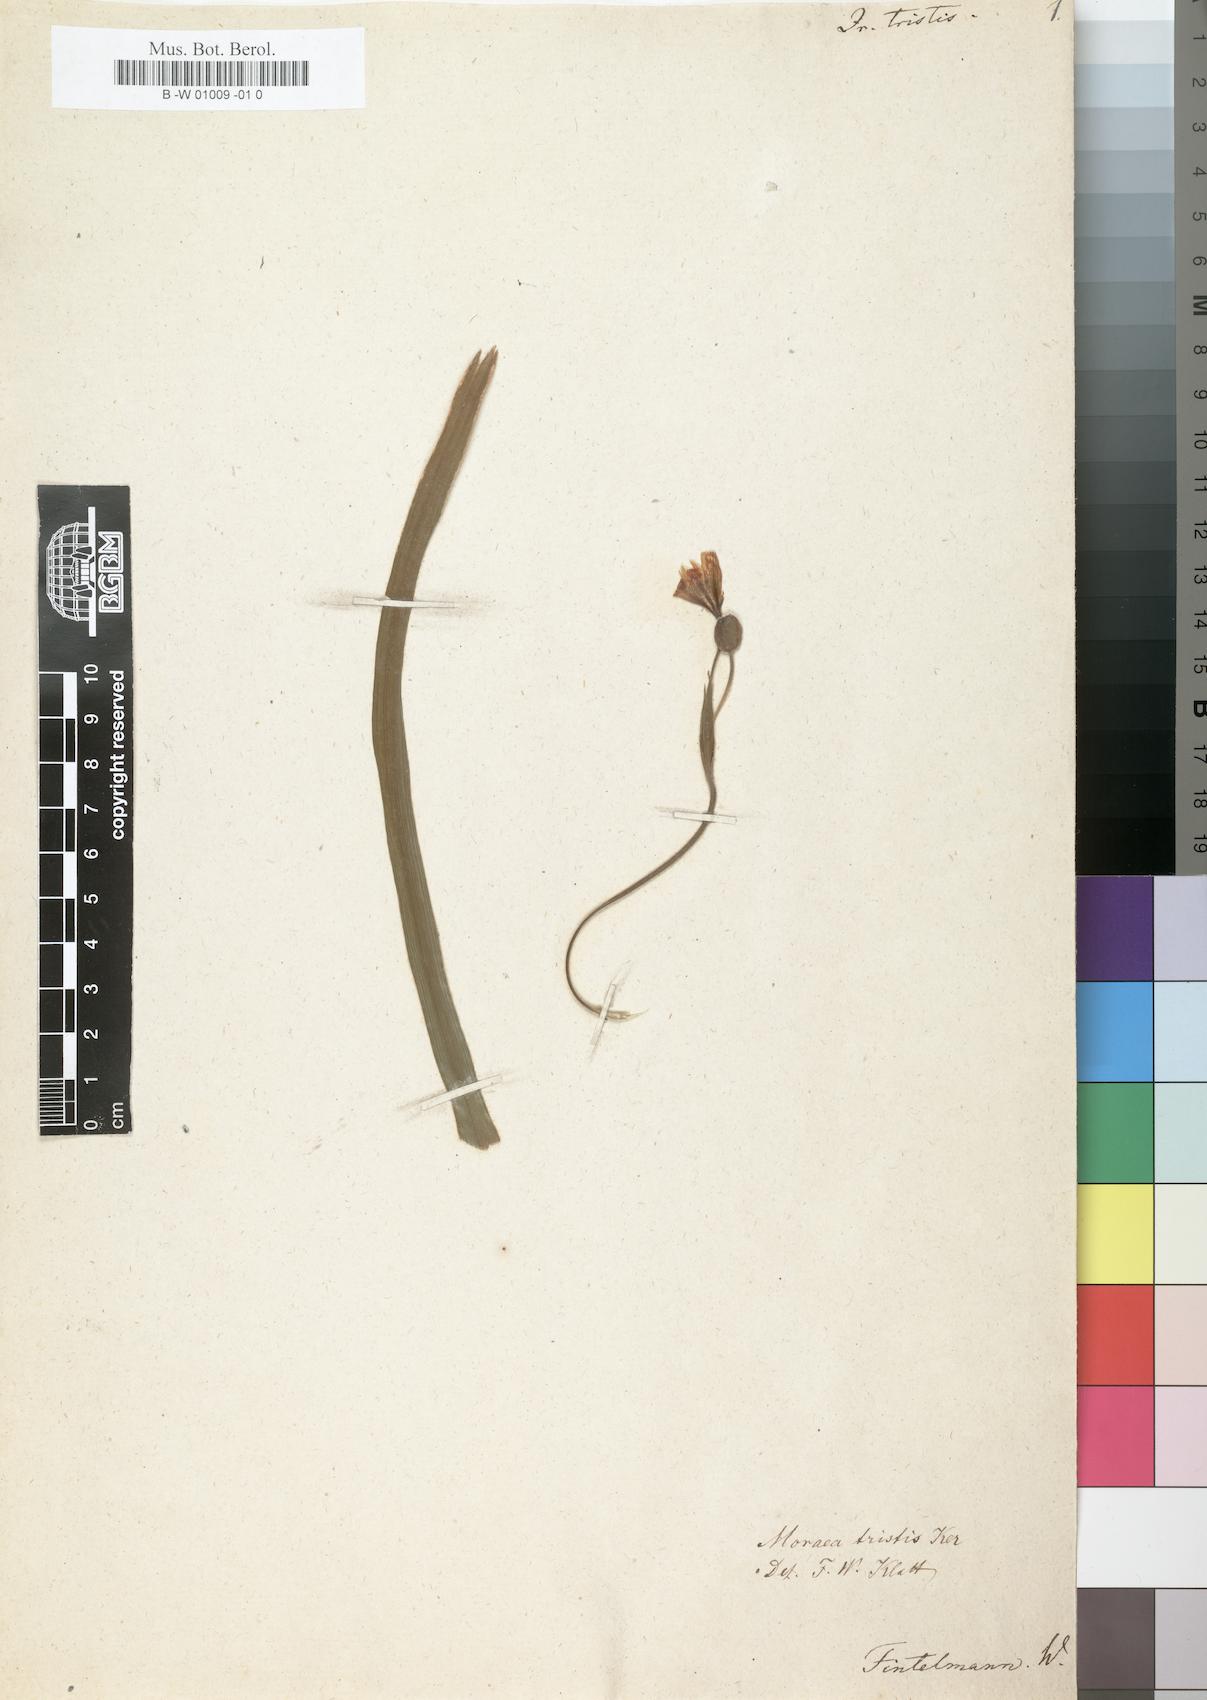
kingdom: Plantae
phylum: Tracheophyta
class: Liliopsida
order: Asparagales
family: Iridaceae
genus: Moraea
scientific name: Moraea vegeta
